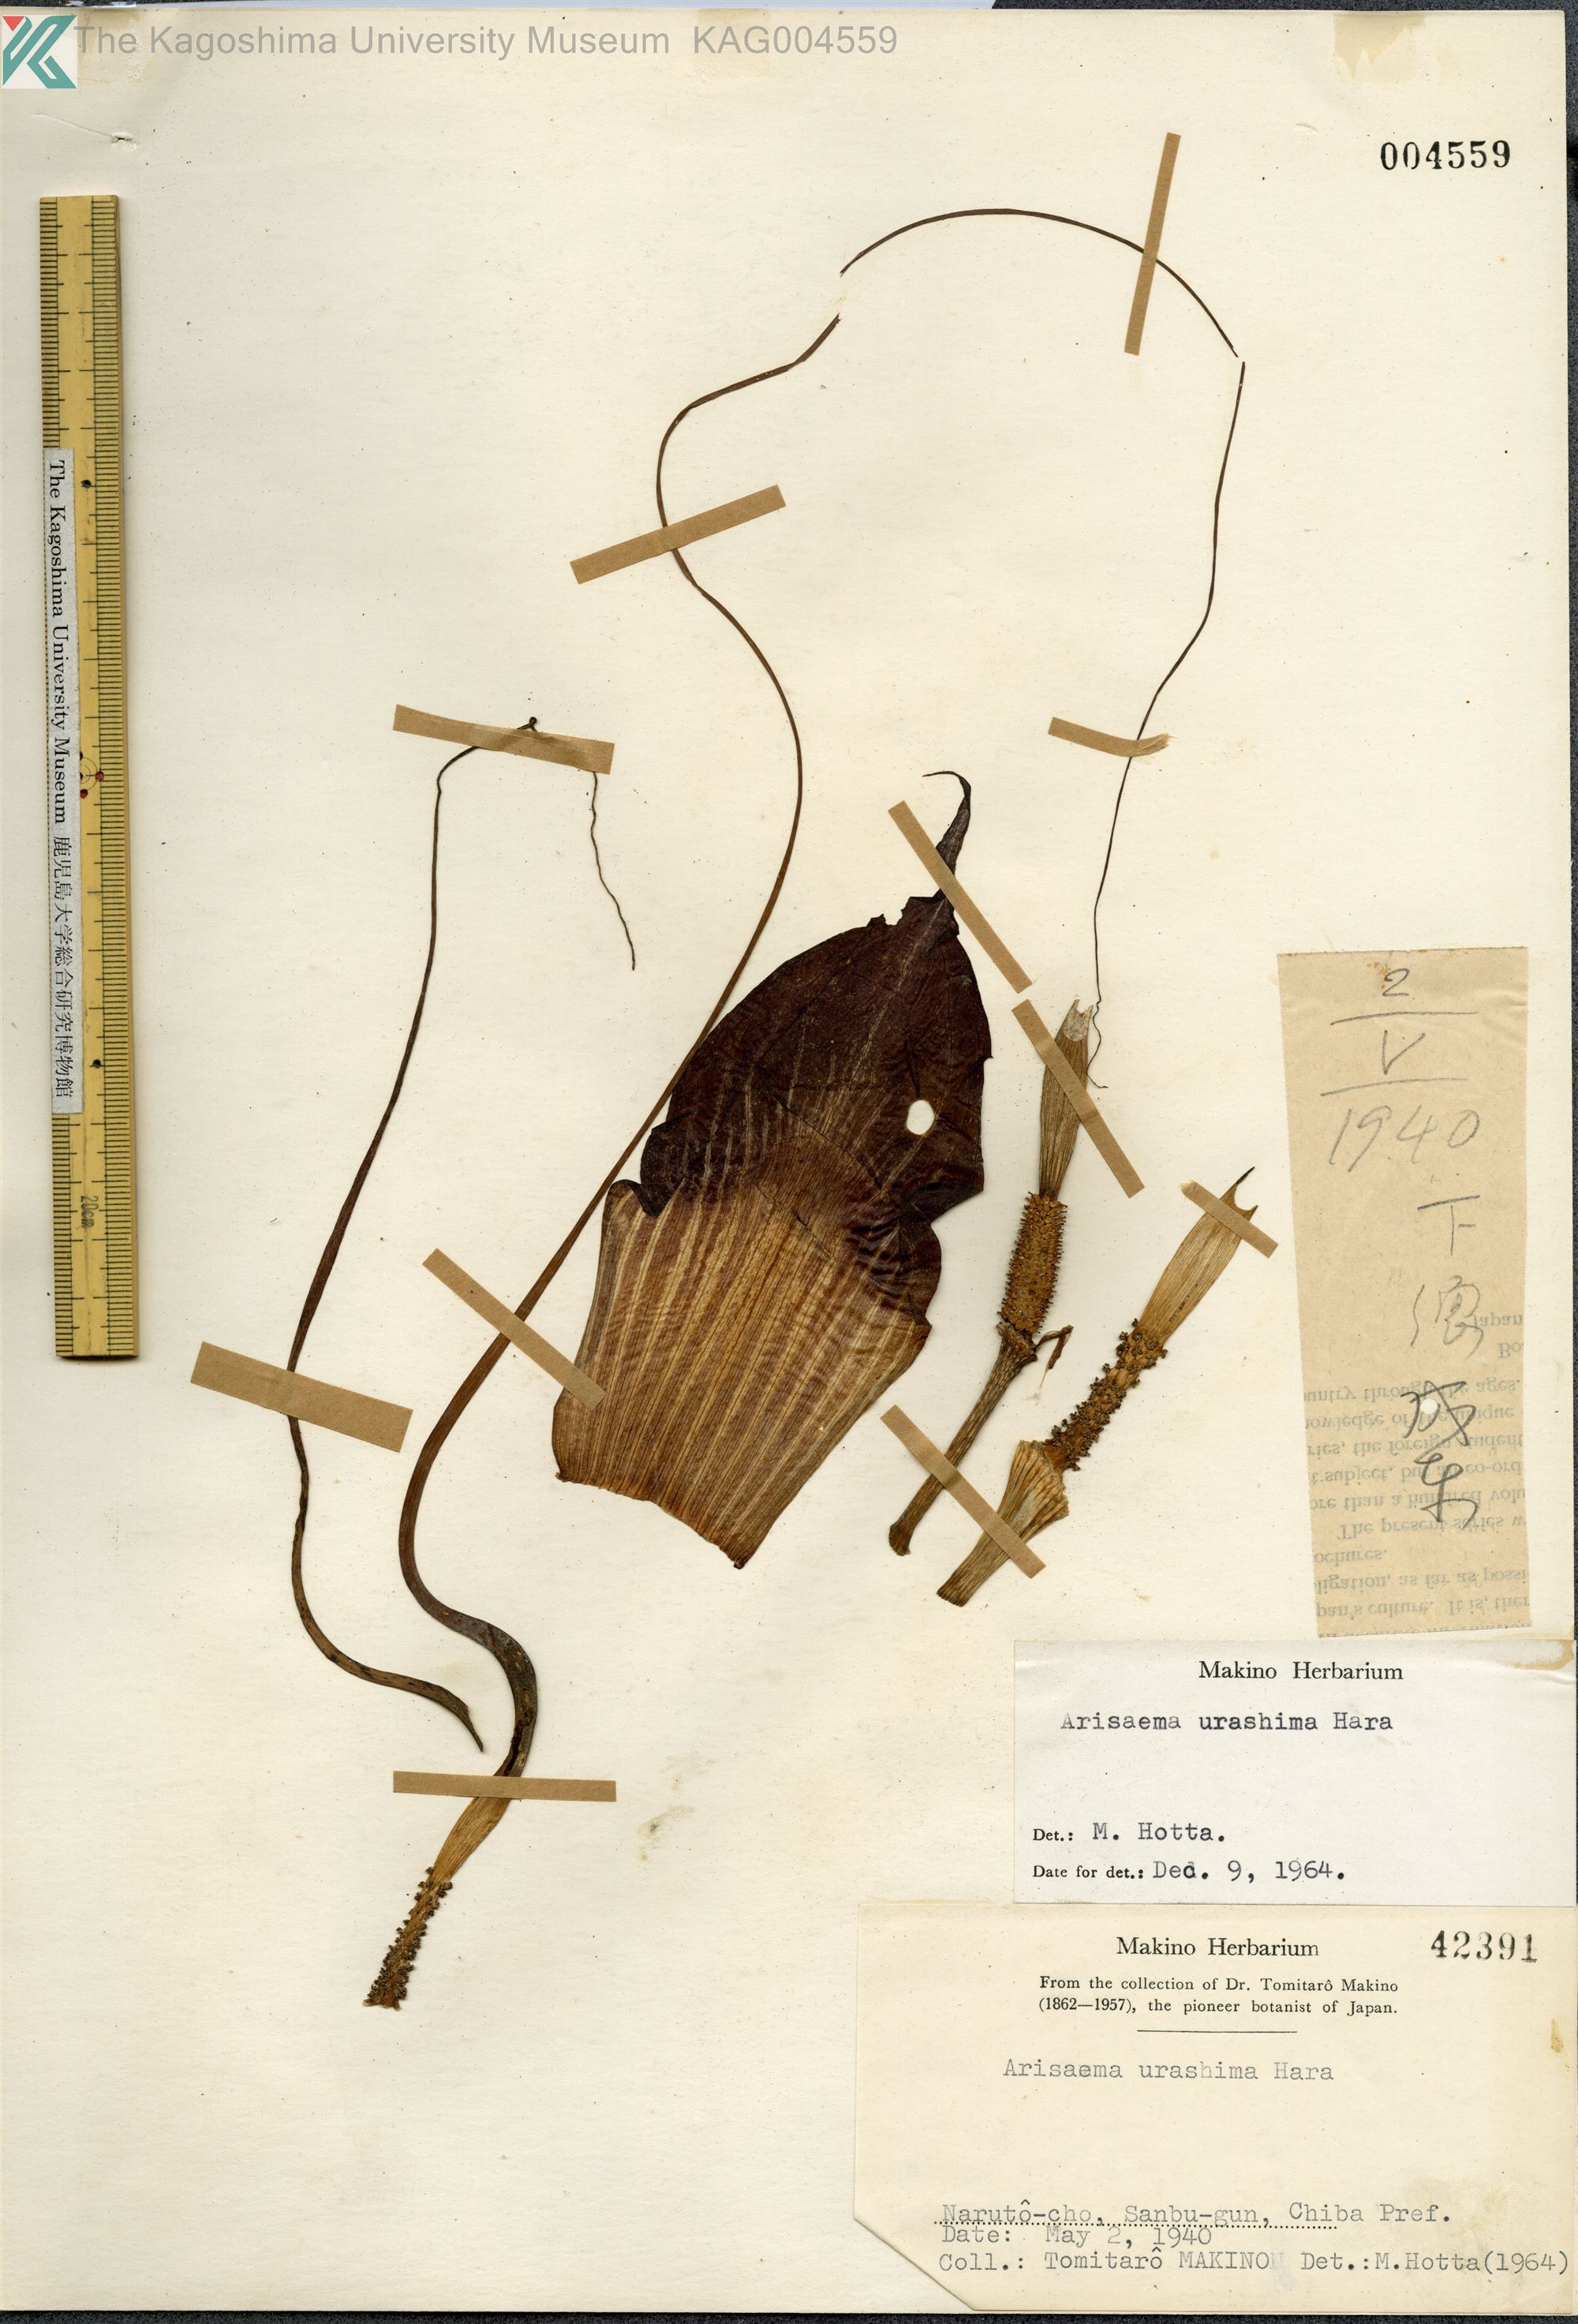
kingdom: Plantae
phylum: Tracheophyta
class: Liliopsida
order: Alismatales
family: Araceae
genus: Arisaema
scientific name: Arisaema thunbergii
